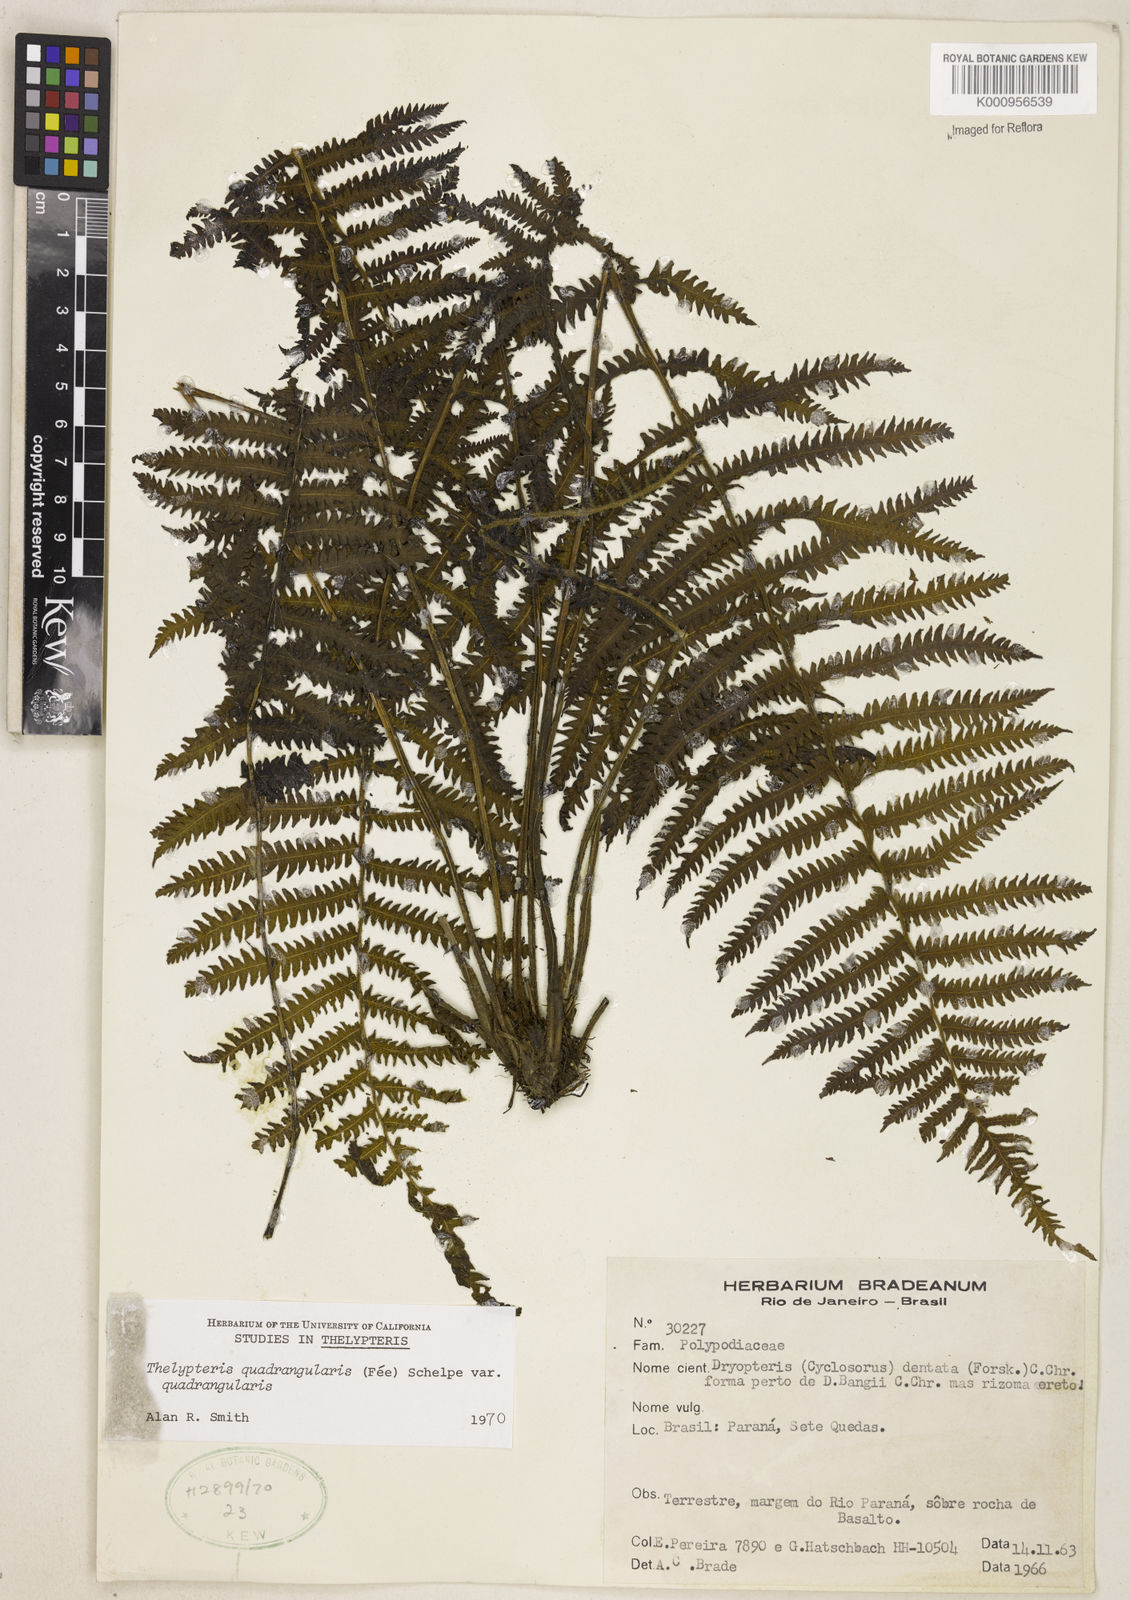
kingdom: Plantae
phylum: Tracheophyta
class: Polypodiopsida
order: Polypodiales
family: Thelypteridaceae
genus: Christella
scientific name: Christella hispidula
